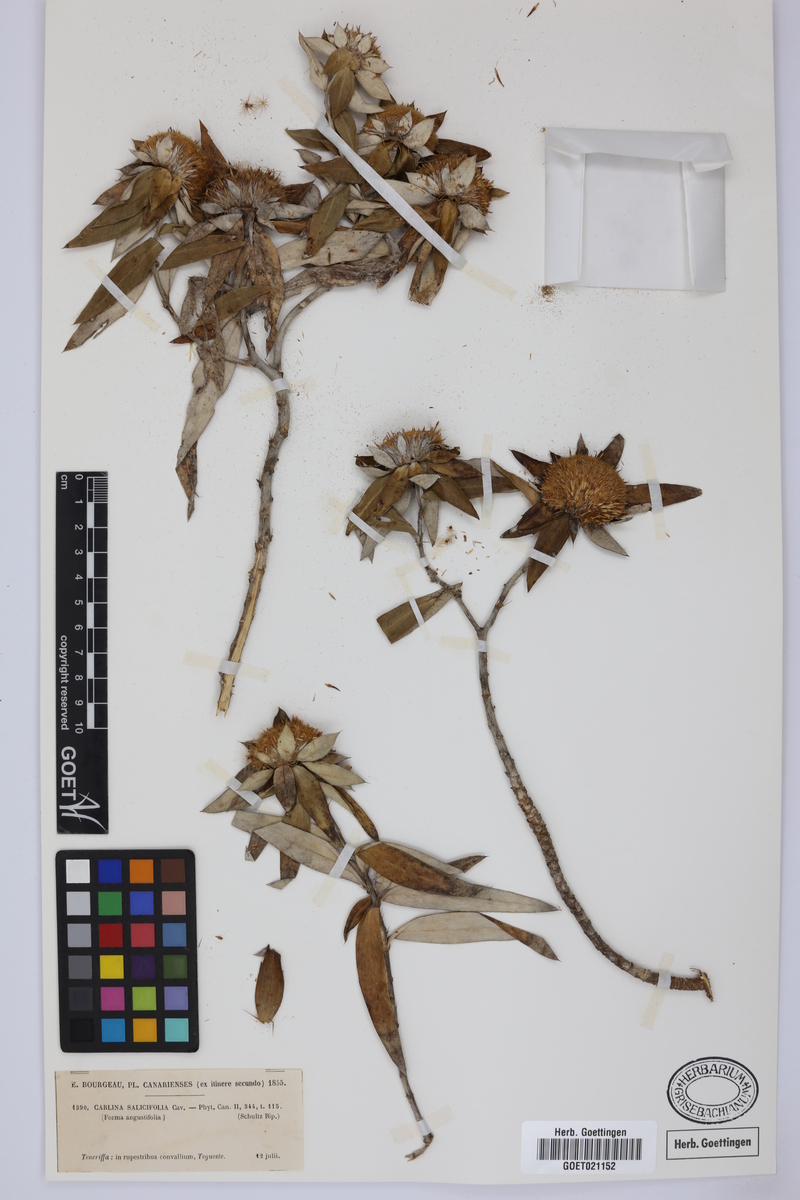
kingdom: Plantae
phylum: Tracheophyta
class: Magnoliopsida
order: Asterales
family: Asteraceae
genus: Carlina
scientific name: Carlina salicifolia
